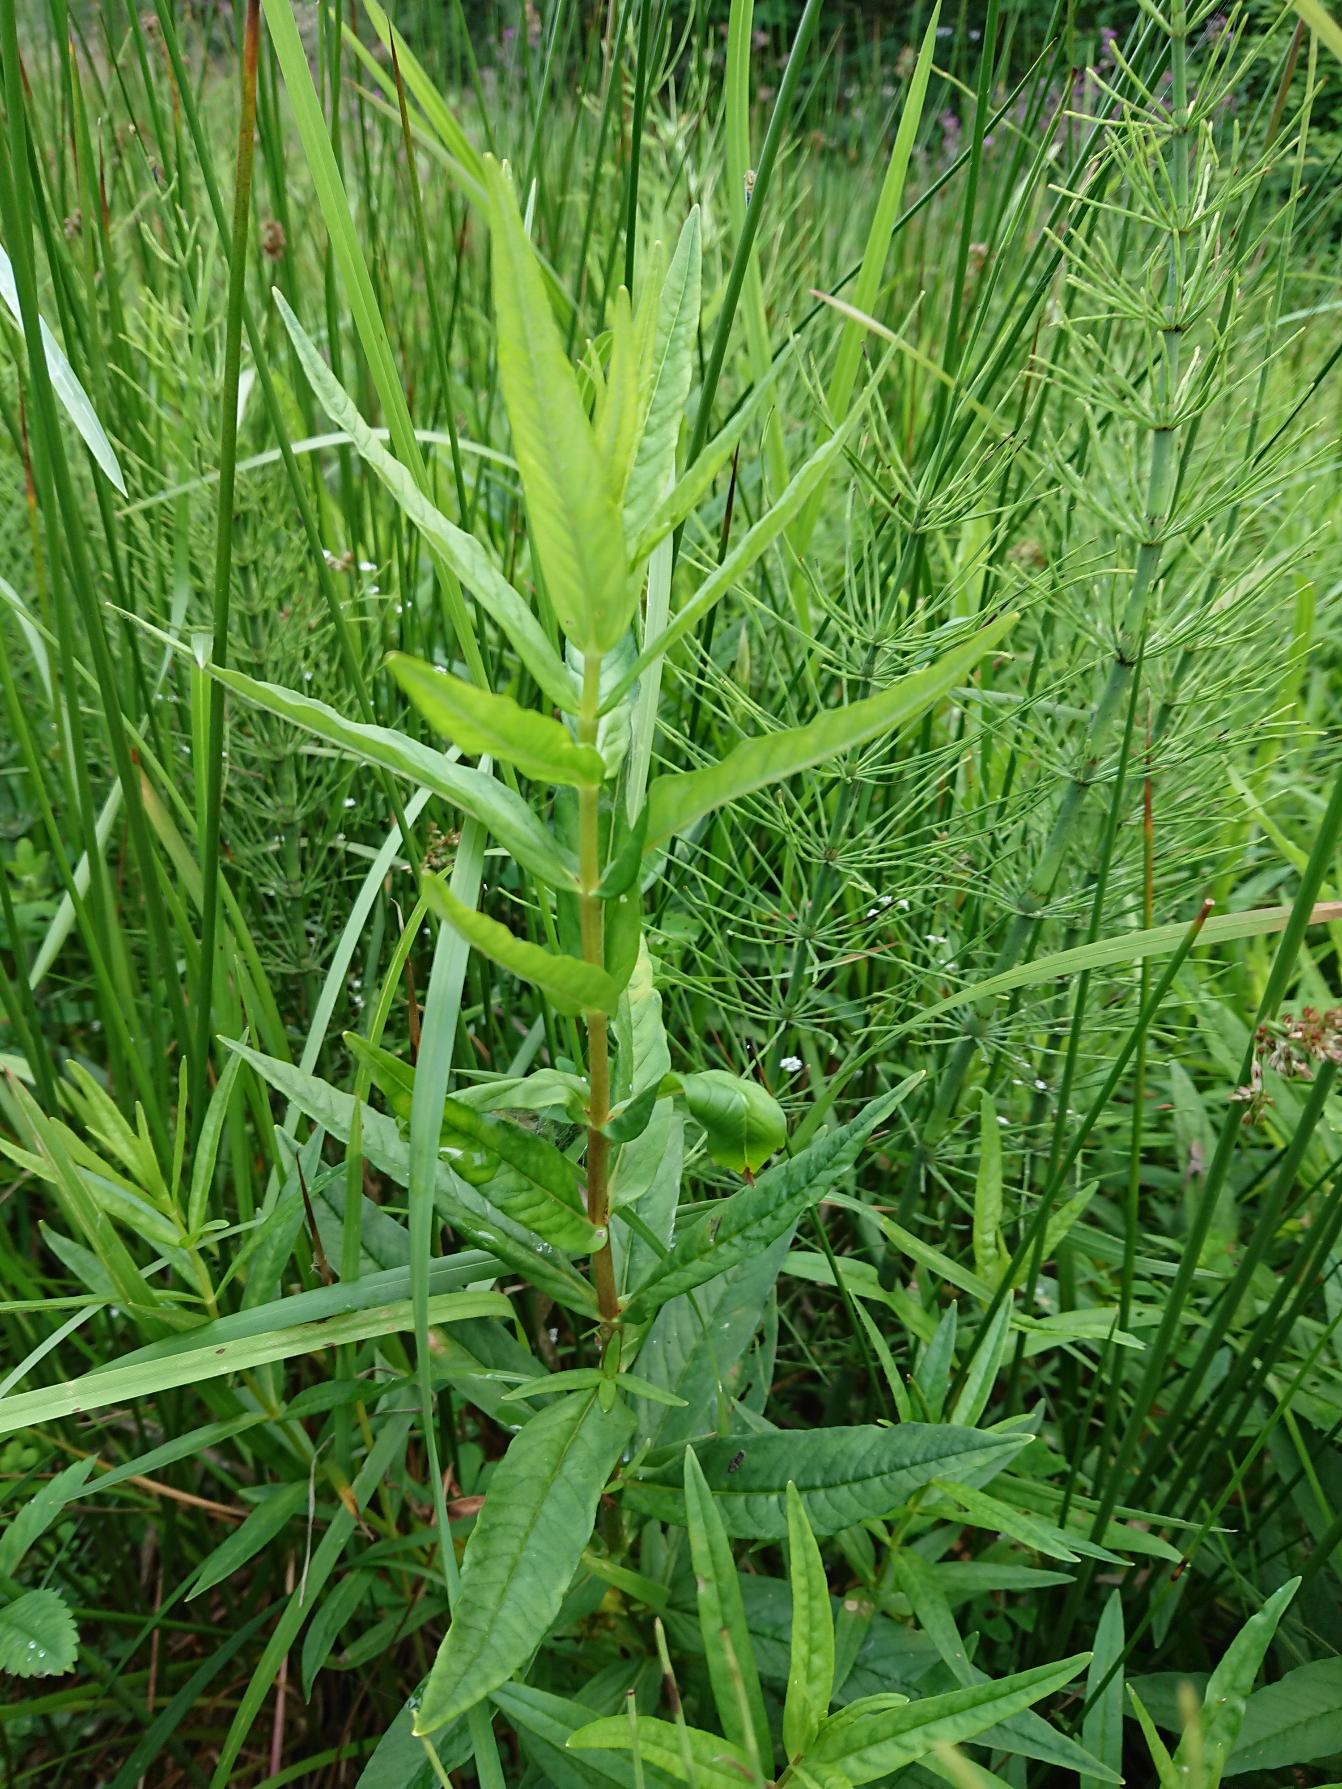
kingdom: Plantae
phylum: Tracheophyta
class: Magnoliopsida
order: Ericales
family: Primulaceae
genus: Lysimachia
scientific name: Lysimachia thyrsiflora
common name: Dusk-fredløs
